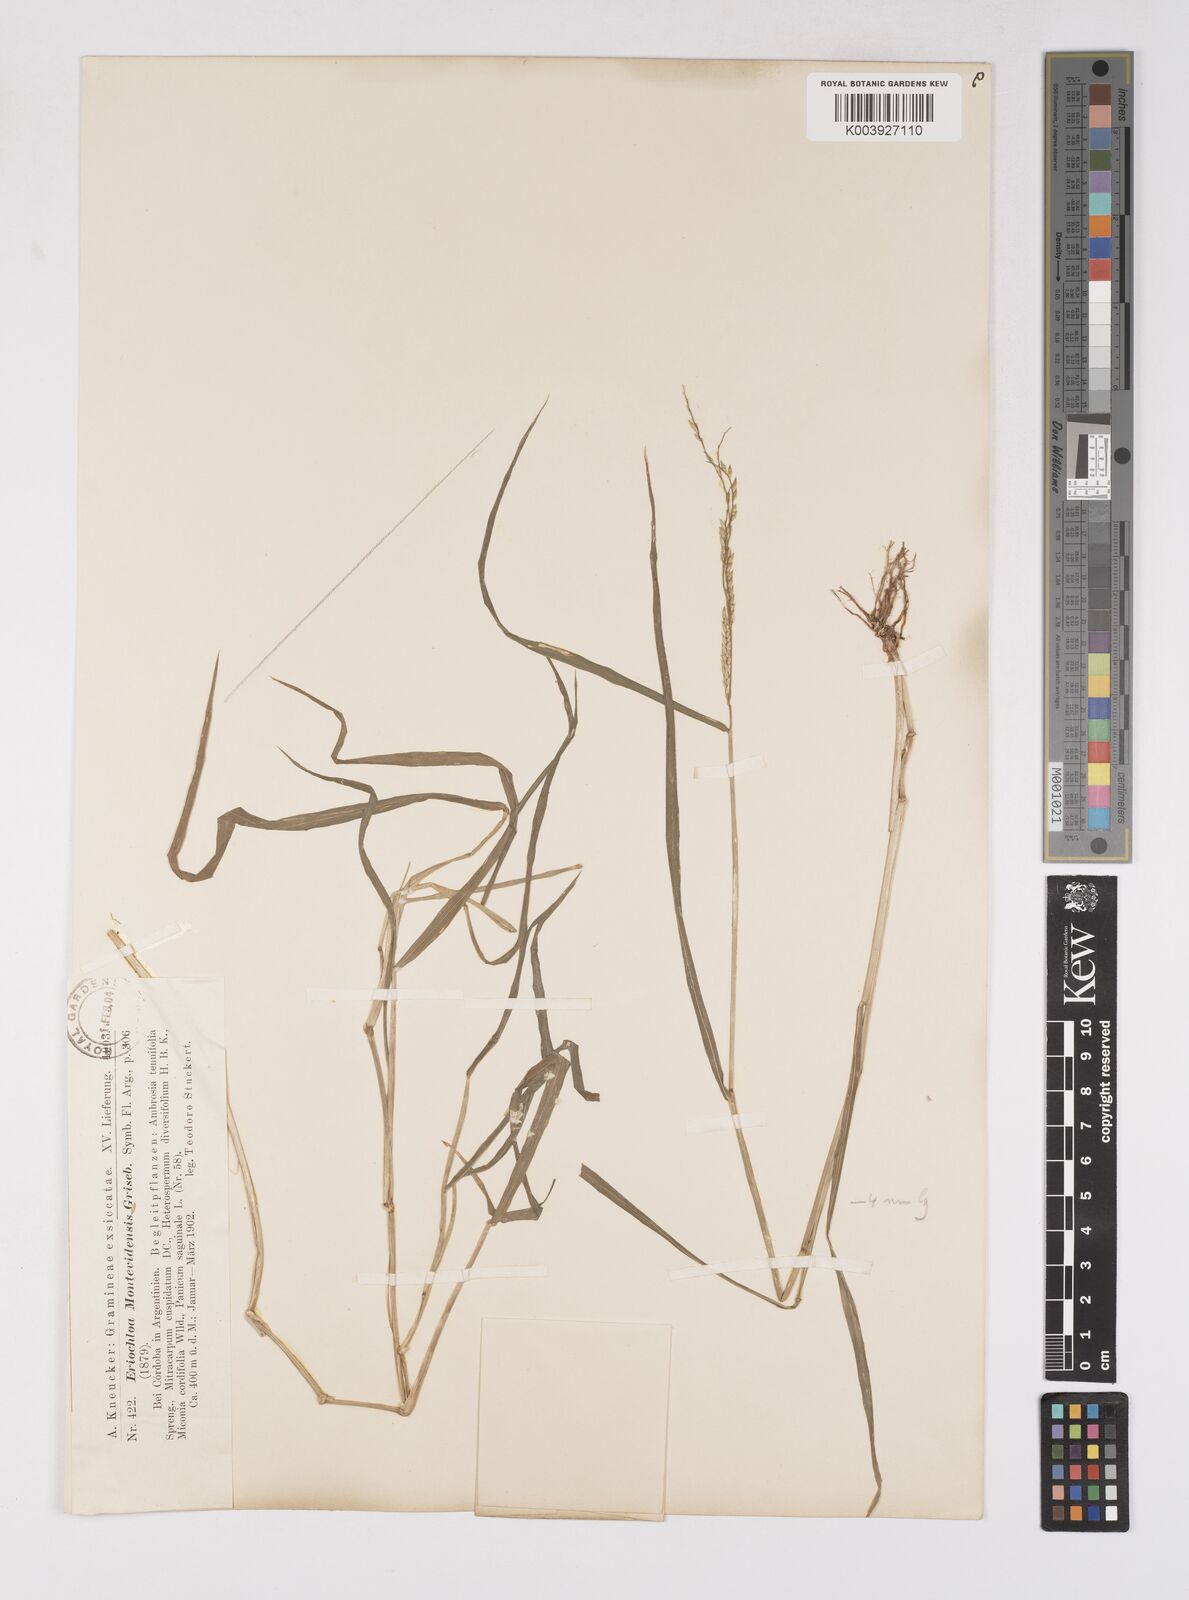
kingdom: Plantae
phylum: Tracheophyta
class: Liliopsida
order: Poales
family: Poaceae
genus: Eriochloa
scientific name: Eriochloa punctata
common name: Louisiana cupgrass
